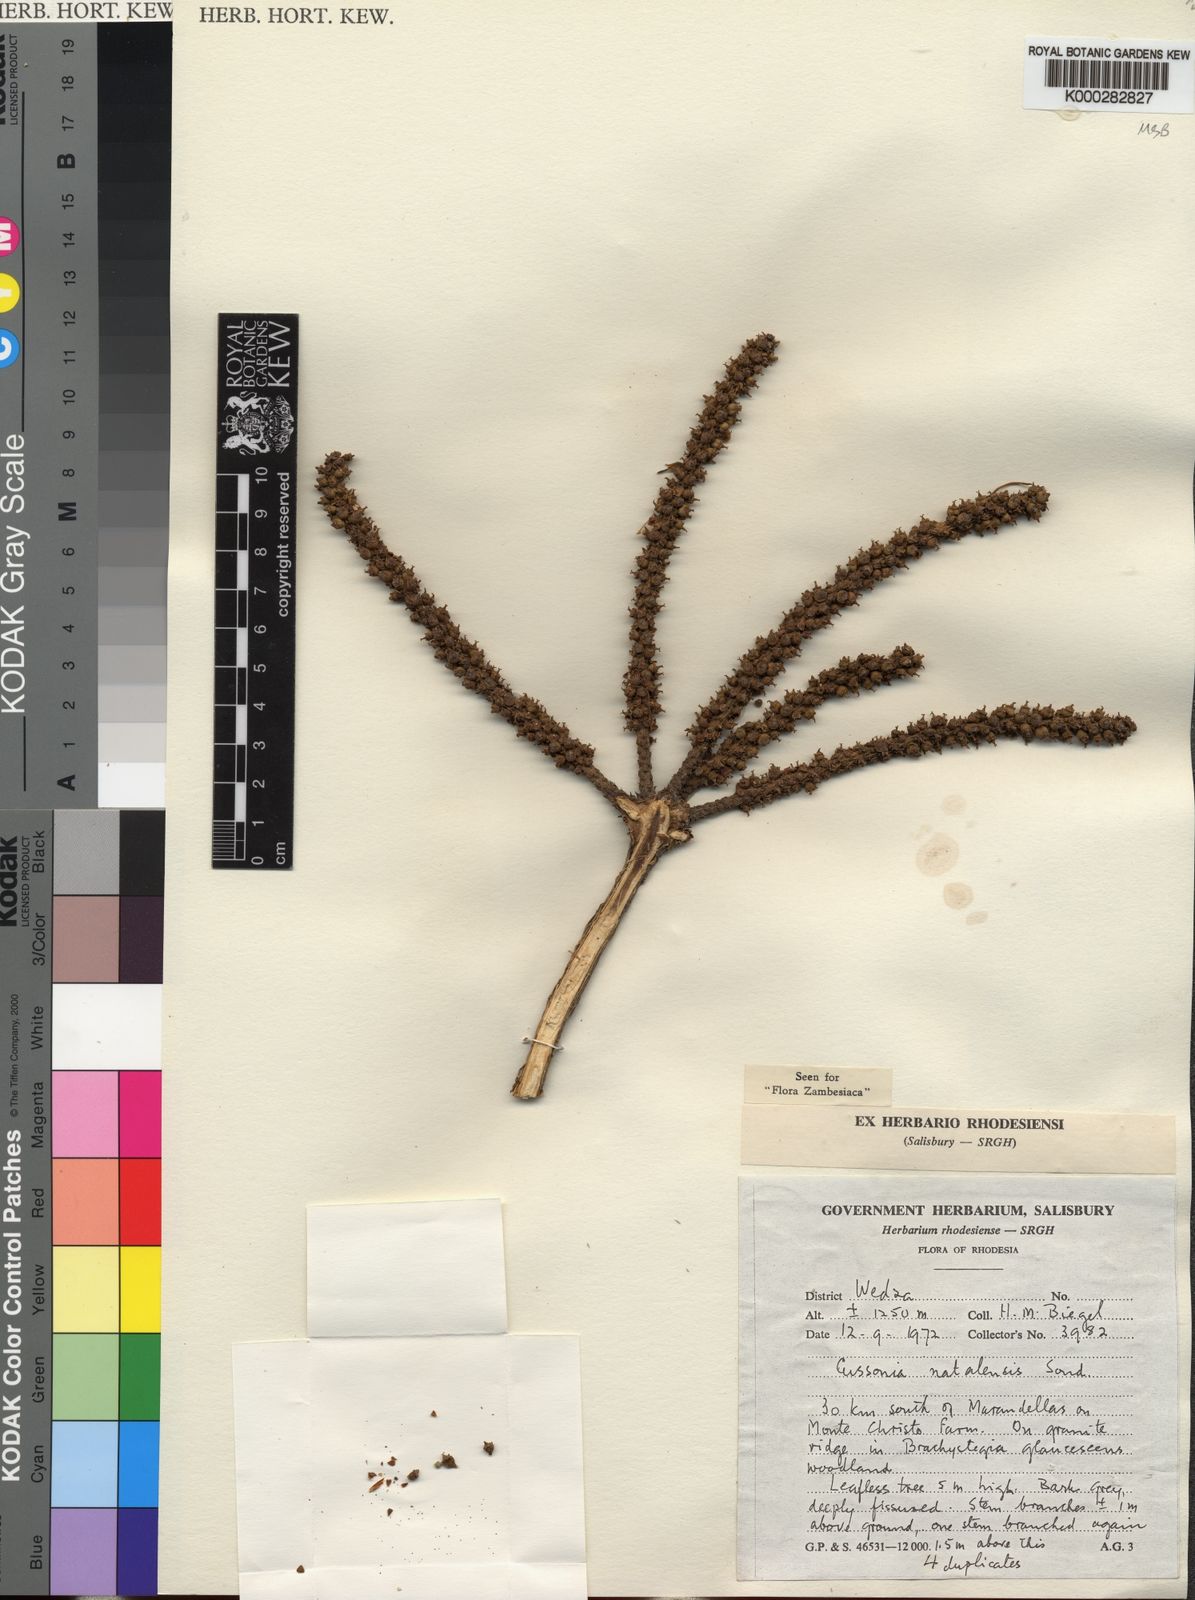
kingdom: Plantae
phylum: Tracheophyta
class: Magnoliopsida
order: Apiales
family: Araliaceae
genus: Cussonia
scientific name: Cussonia natalensis
